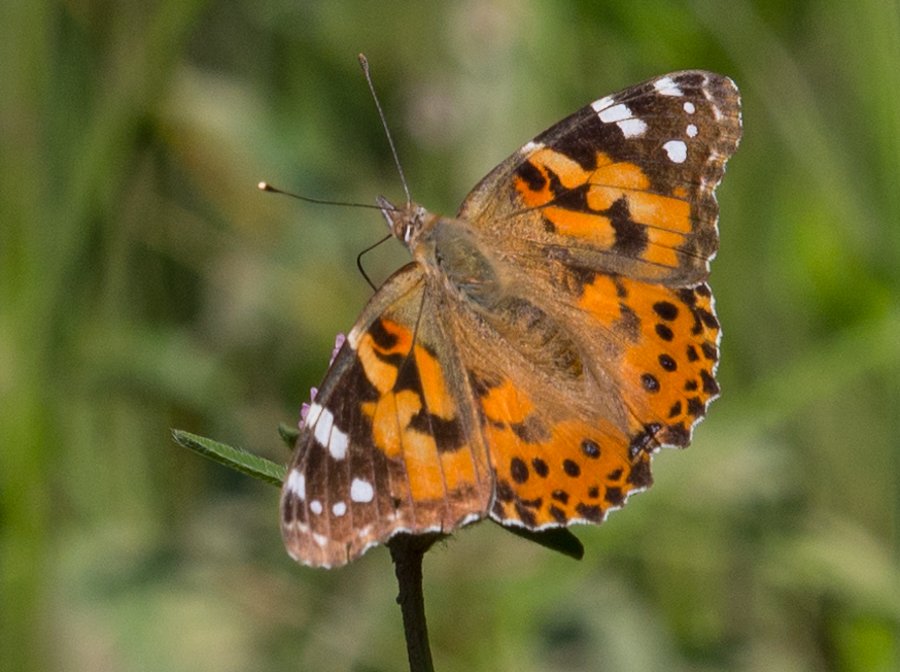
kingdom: Animalia
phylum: Arthropoda
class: Insecta
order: Lepidoptera
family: Nymphalidae
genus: Vanessa
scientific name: Vanessa cardui
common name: Painted Lady
